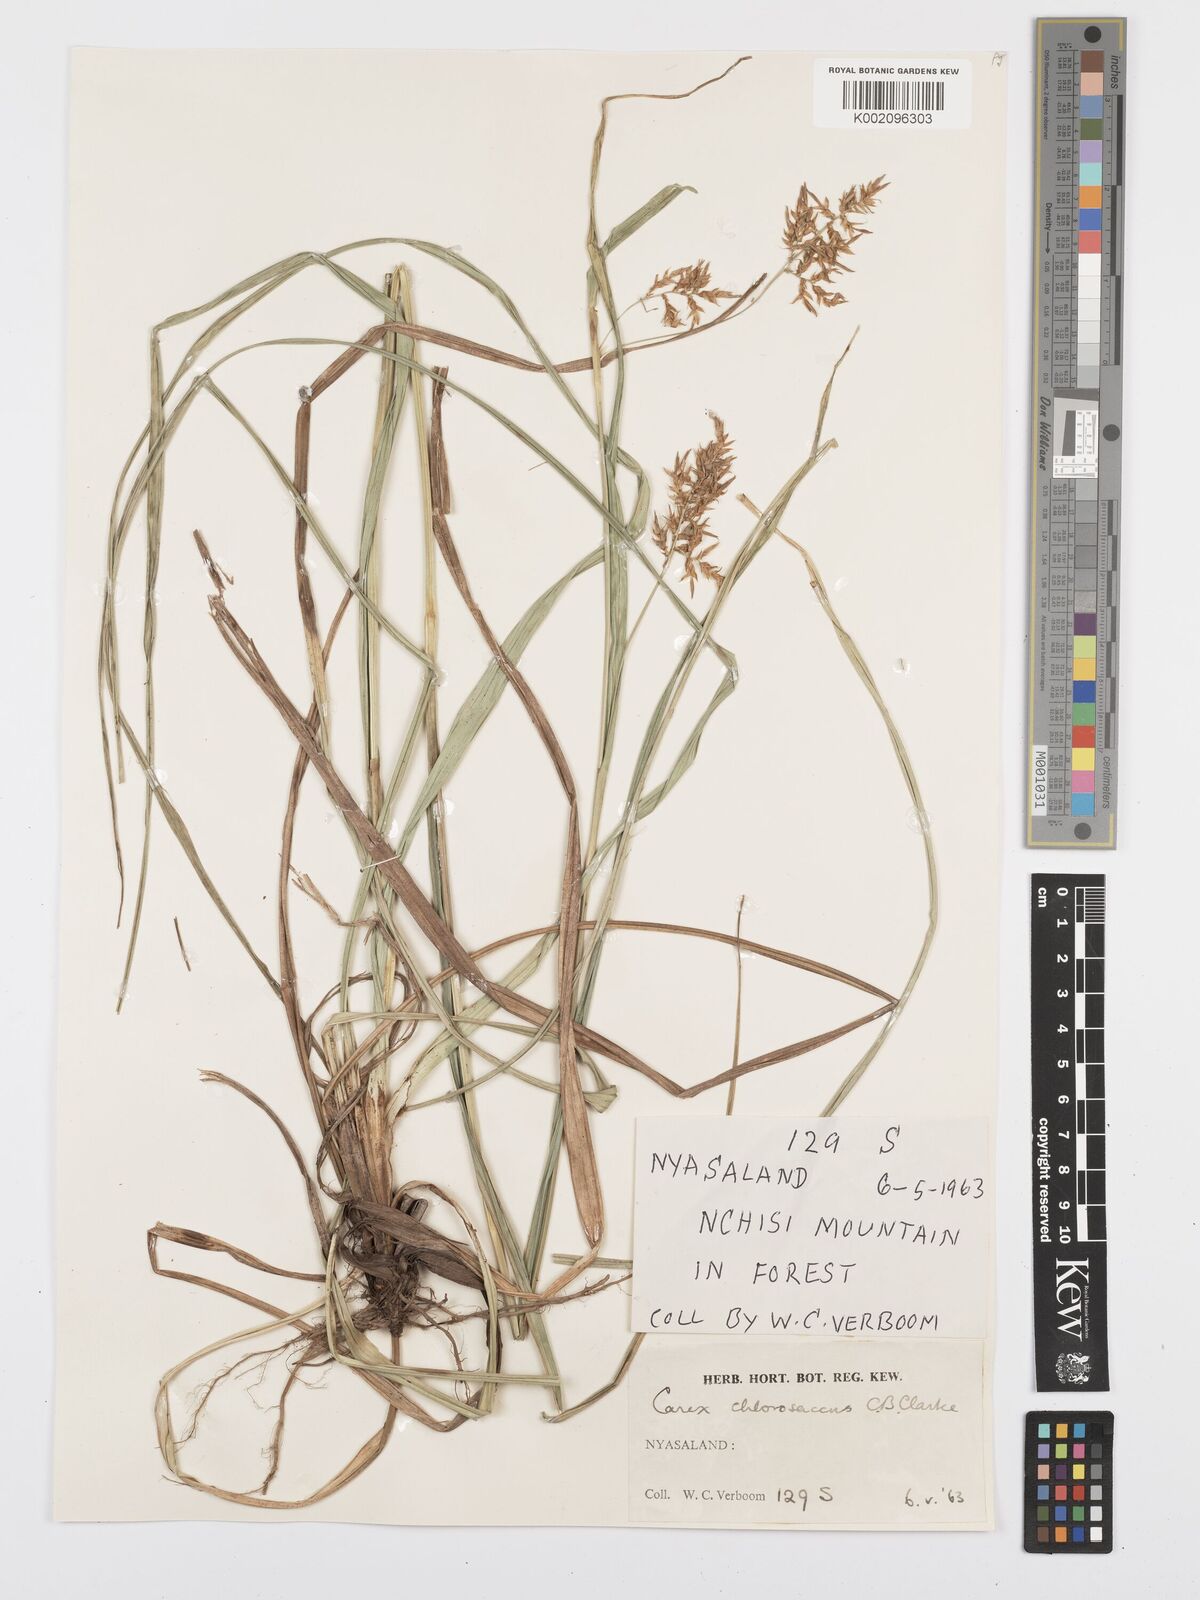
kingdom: Plantae
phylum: Tracheophyta
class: Liliopsida
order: Poales
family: Cyperaceae
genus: Carex
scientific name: Carex chlorosaccus
